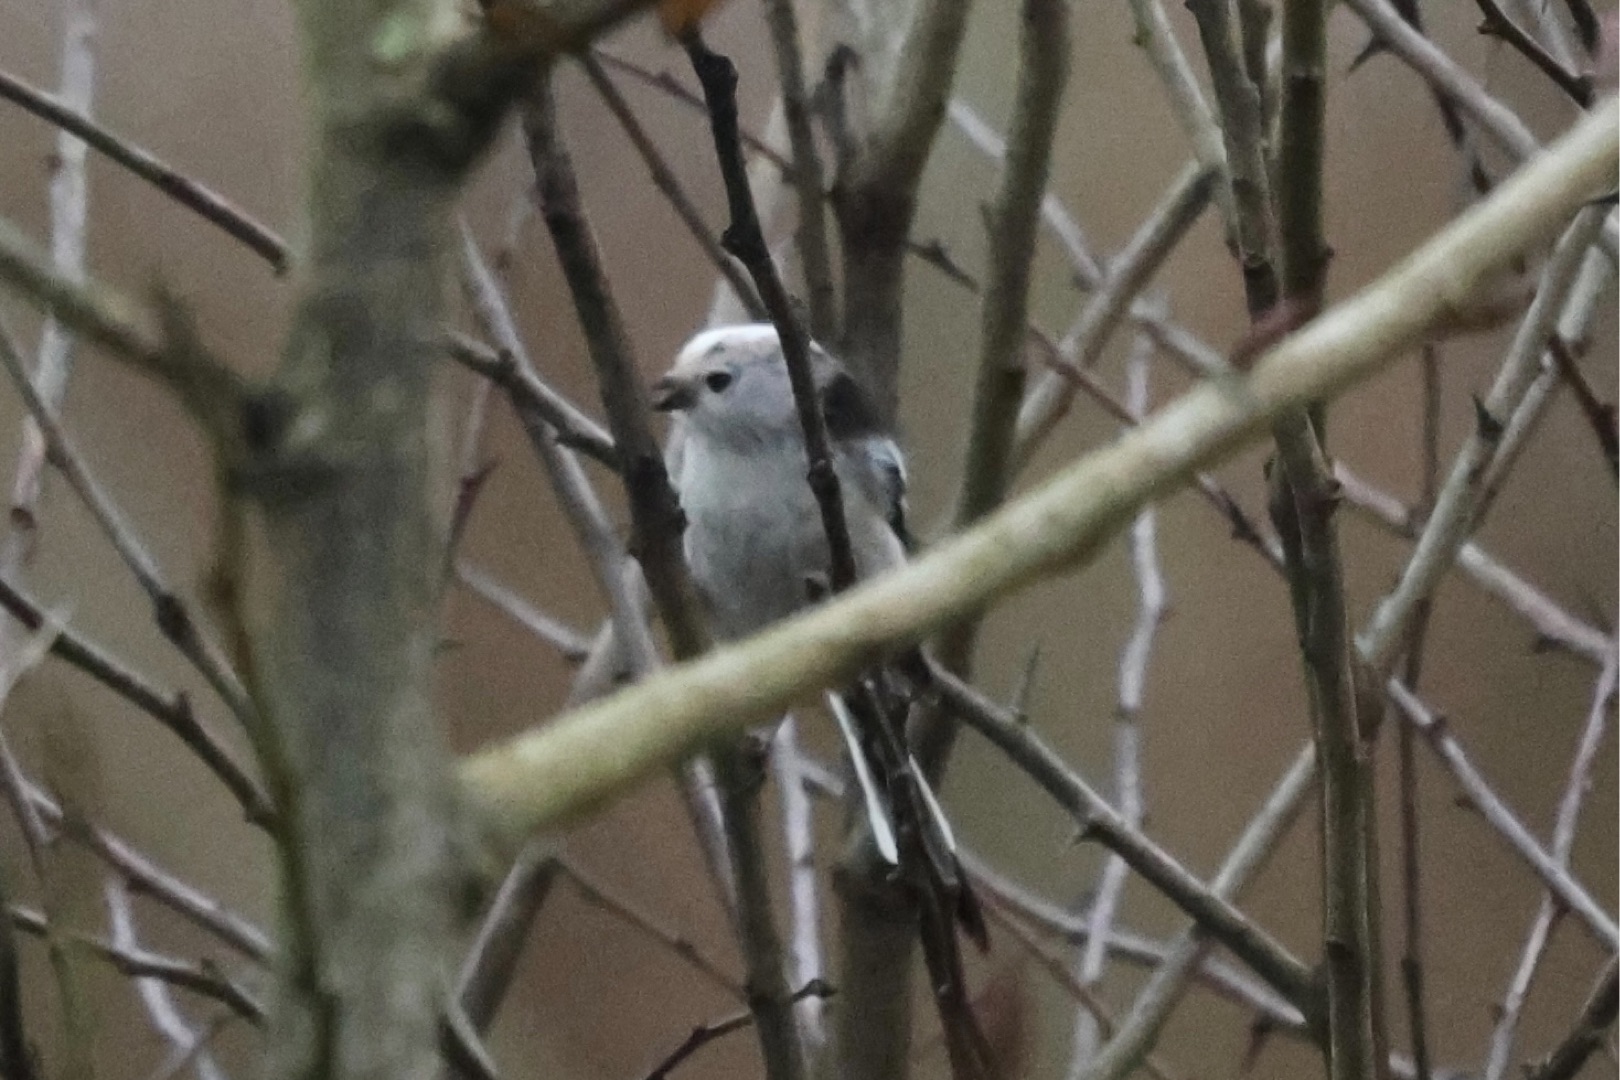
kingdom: Animalia
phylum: Chordata
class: Aves
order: Passeriformes
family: Aegithalidae
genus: Aegithalos
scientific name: Aegithalos caudatus
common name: Nordlig halemejse
